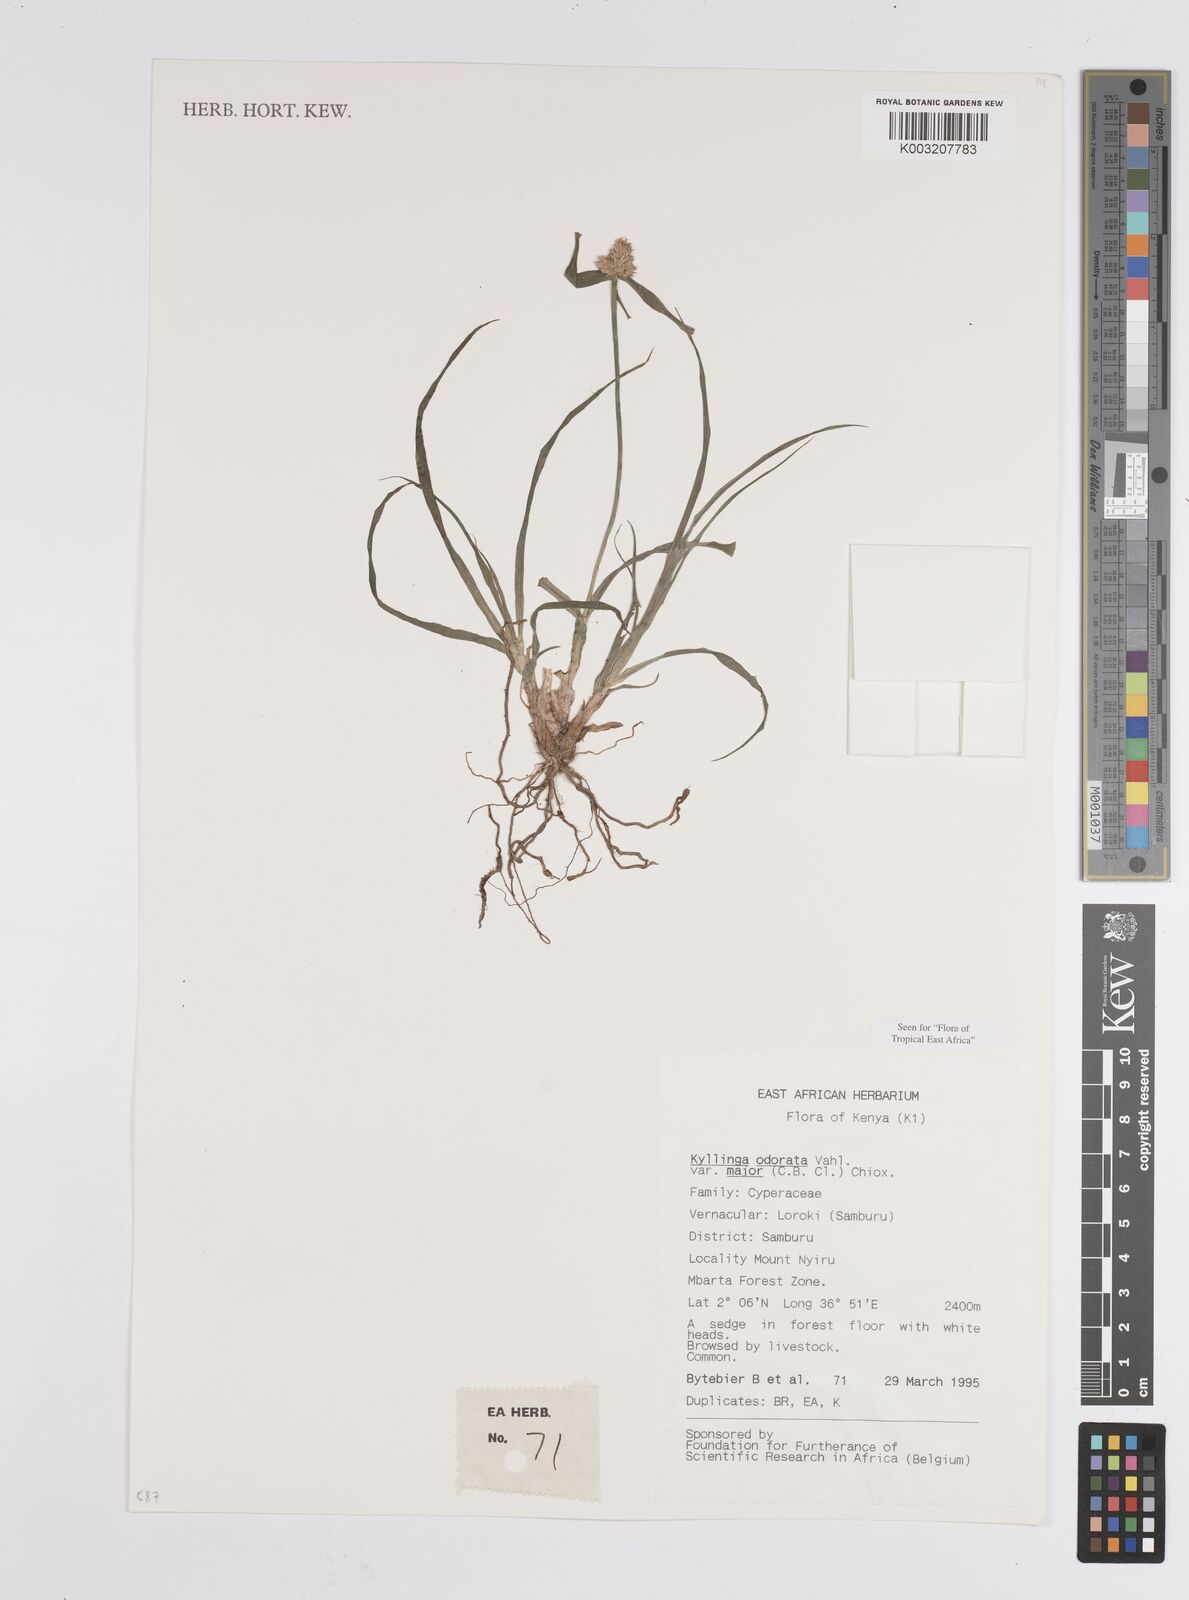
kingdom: Plantae
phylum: Tracheophyta
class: Liliopsida
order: Poales
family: Cyperaceae
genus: Cyperus
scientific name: Cyperus
